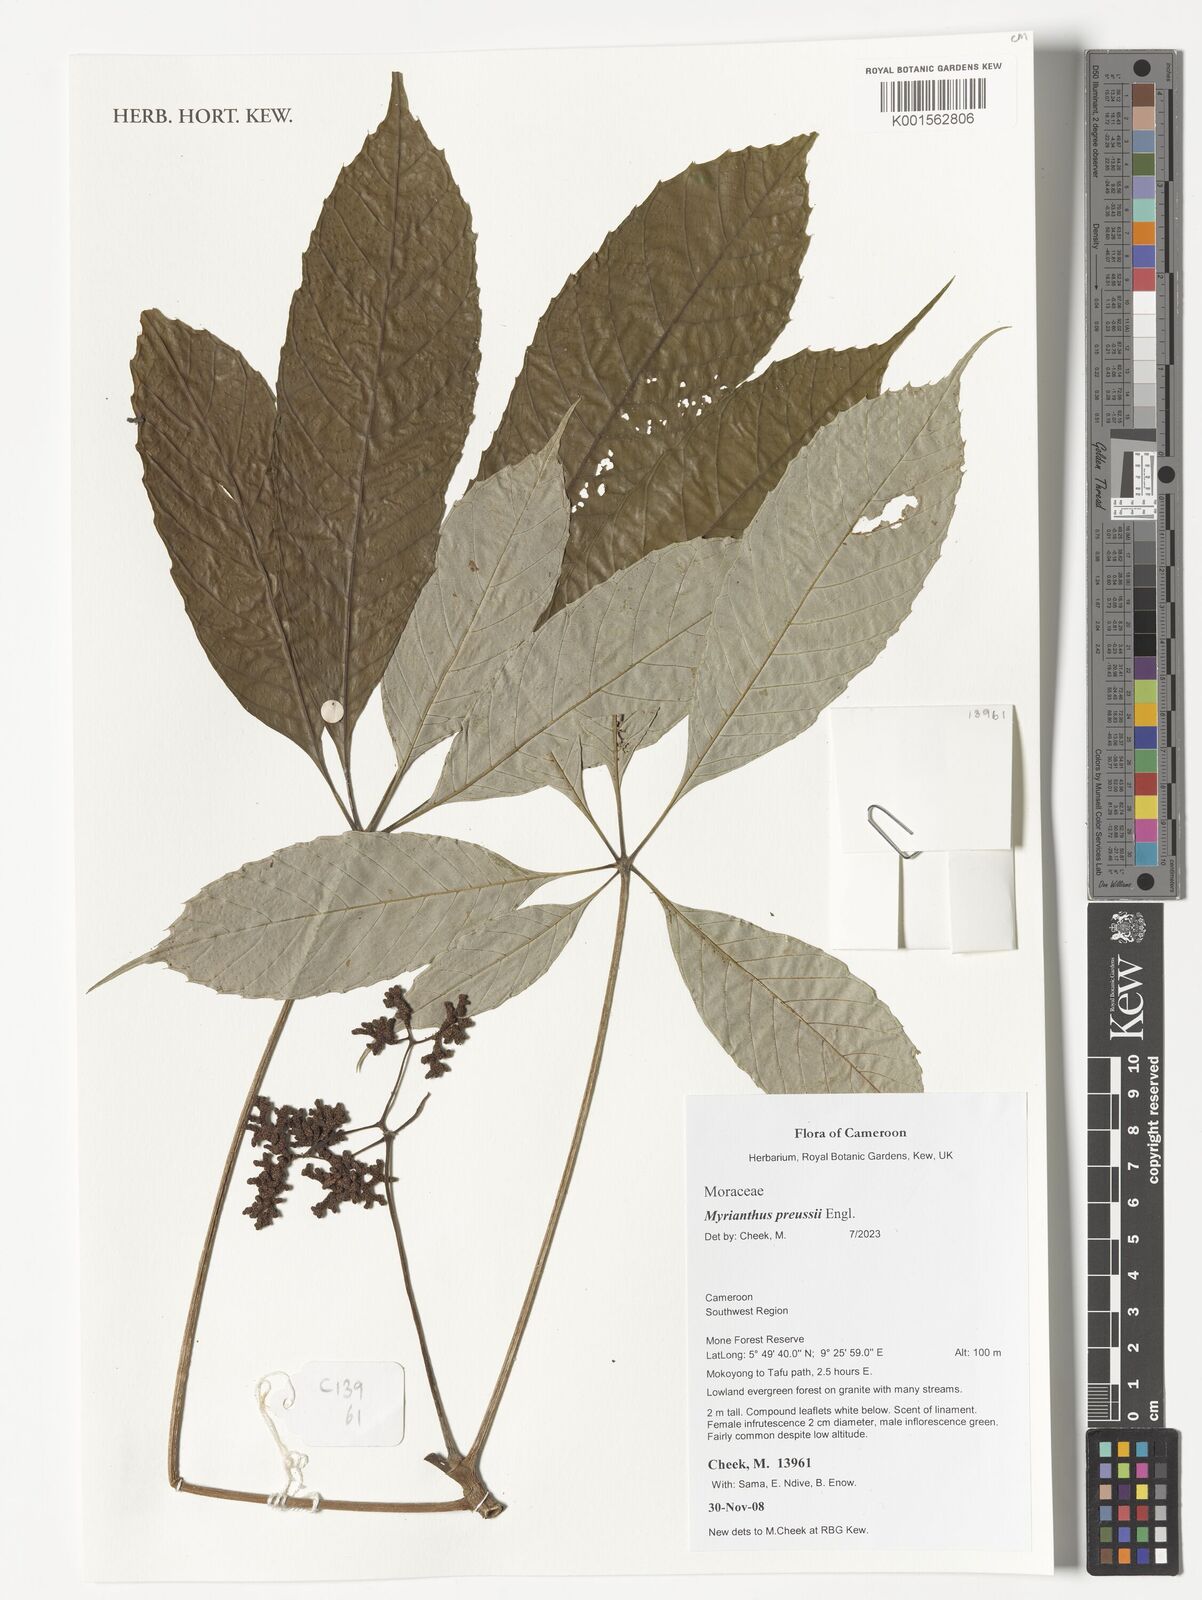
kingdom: Plantae
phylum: Tracheophyta
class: Magnoliopsida
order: Rosales
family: Urticaceae
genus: Myrianthus
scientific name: Myrianthus preussii
